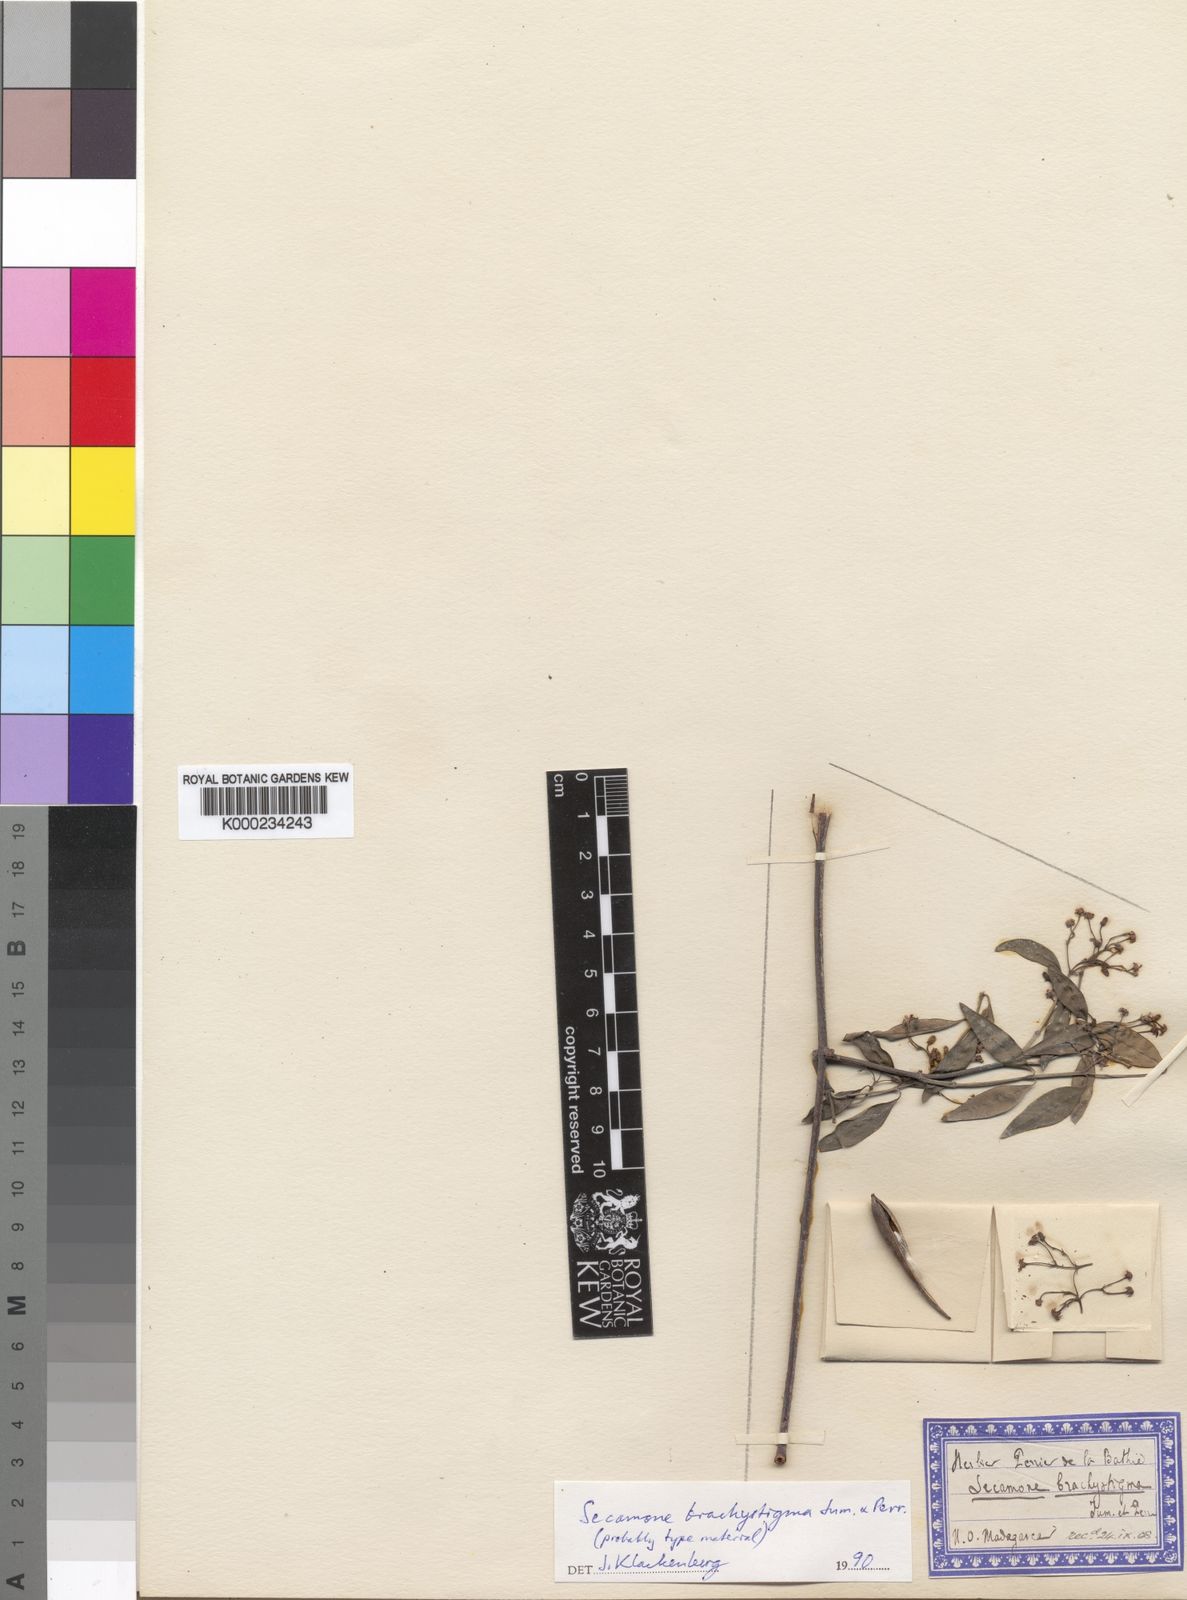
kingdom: Plantae
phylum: Tracheophyta
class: Magnoliopsida
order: Gentianales
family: Apocynaceae
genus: Secamone
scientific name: Secamone brachystigma
